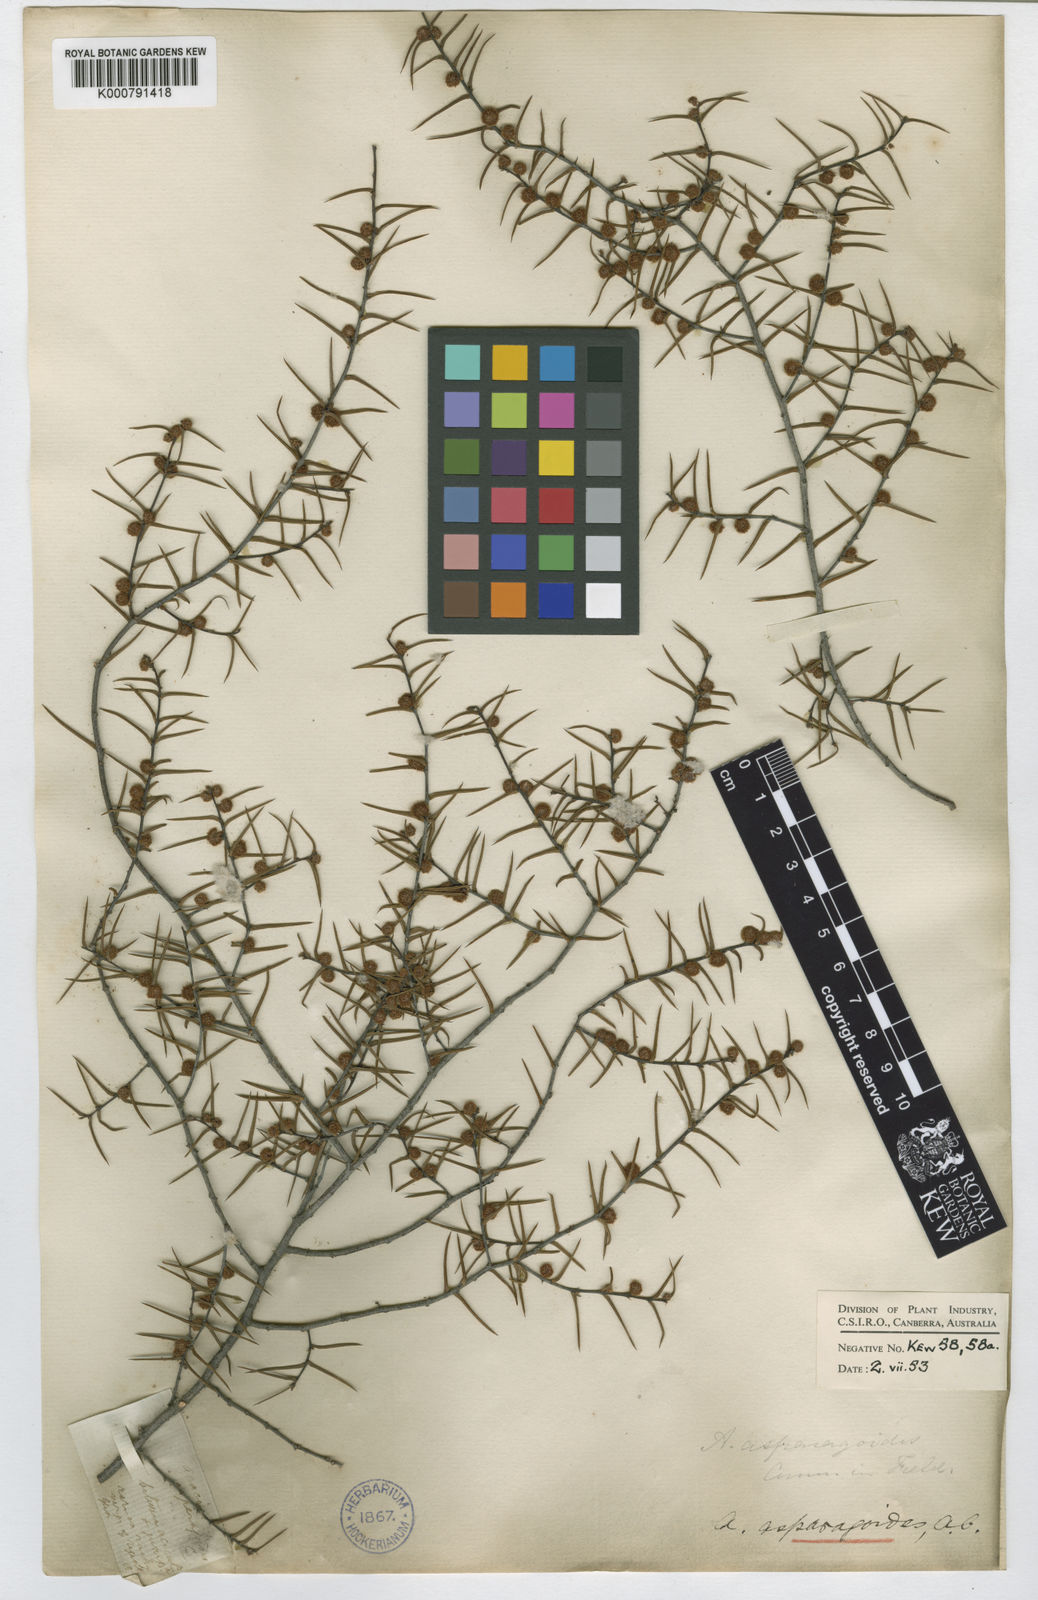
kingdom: Plantae
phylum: Tracheophyta
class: Magnoliopsida
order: Fabales
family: Fabaceae
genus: Acacia
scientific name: Acacia asparagoides
